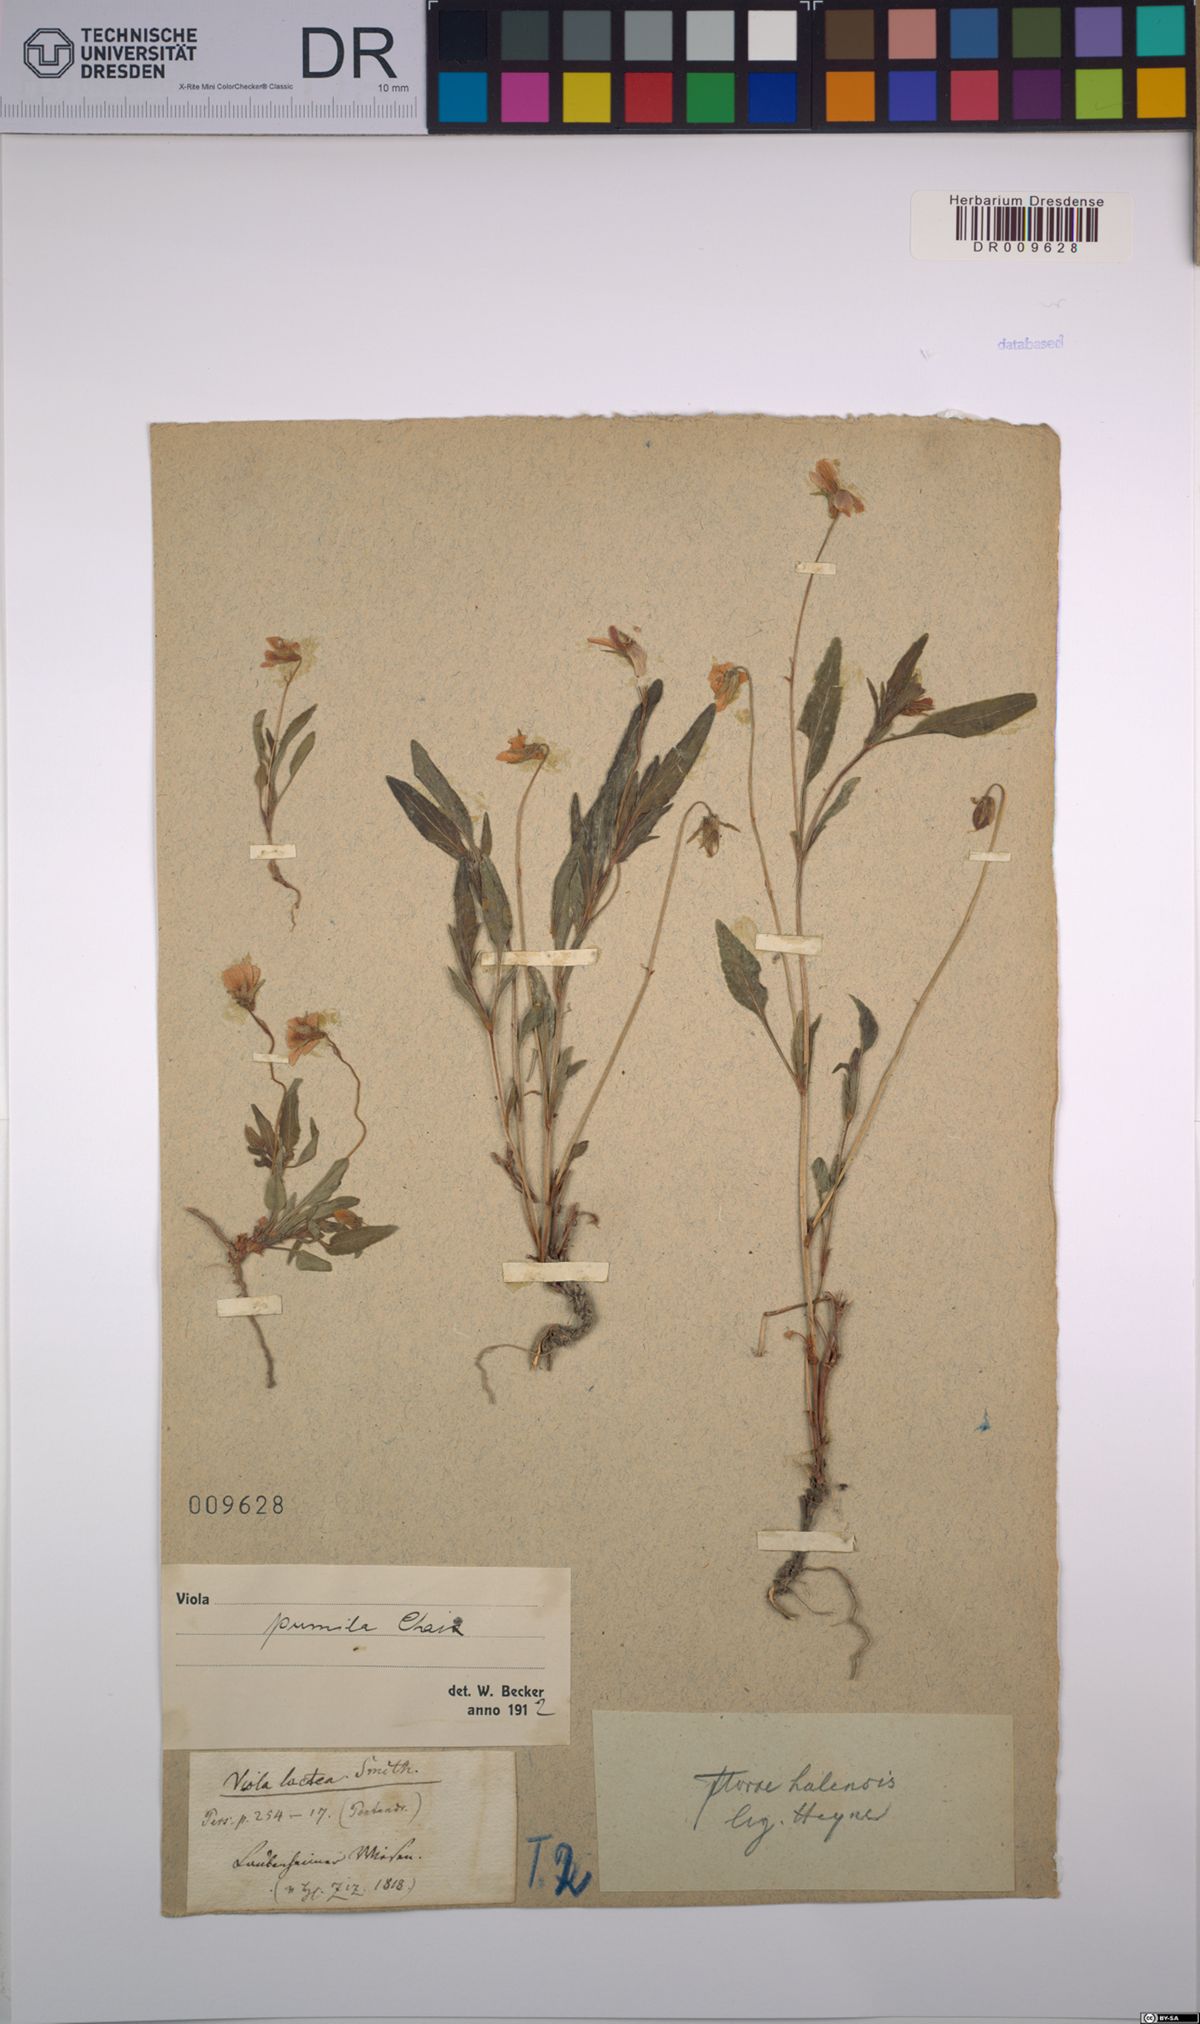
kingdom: Plantae
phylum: Tracheophyta
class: Magnoliopsida
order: Malpighiales
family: Violaceae
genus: Viola
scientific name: Viola pumila
